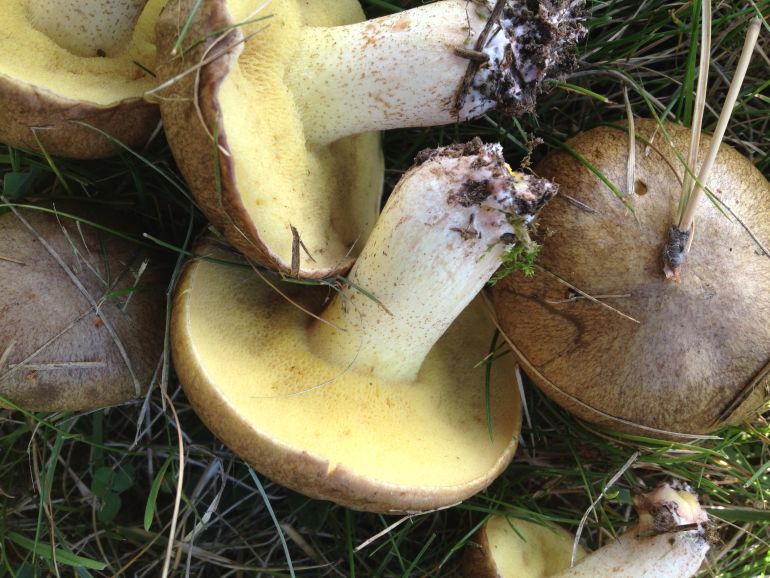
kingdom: Fungi
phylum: Basidiomycota
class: Agaricomycetes
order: Boletales
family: Suillaceae
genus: Suillus
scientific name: Suillus collinitus
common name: rosafodet slimrørhat
